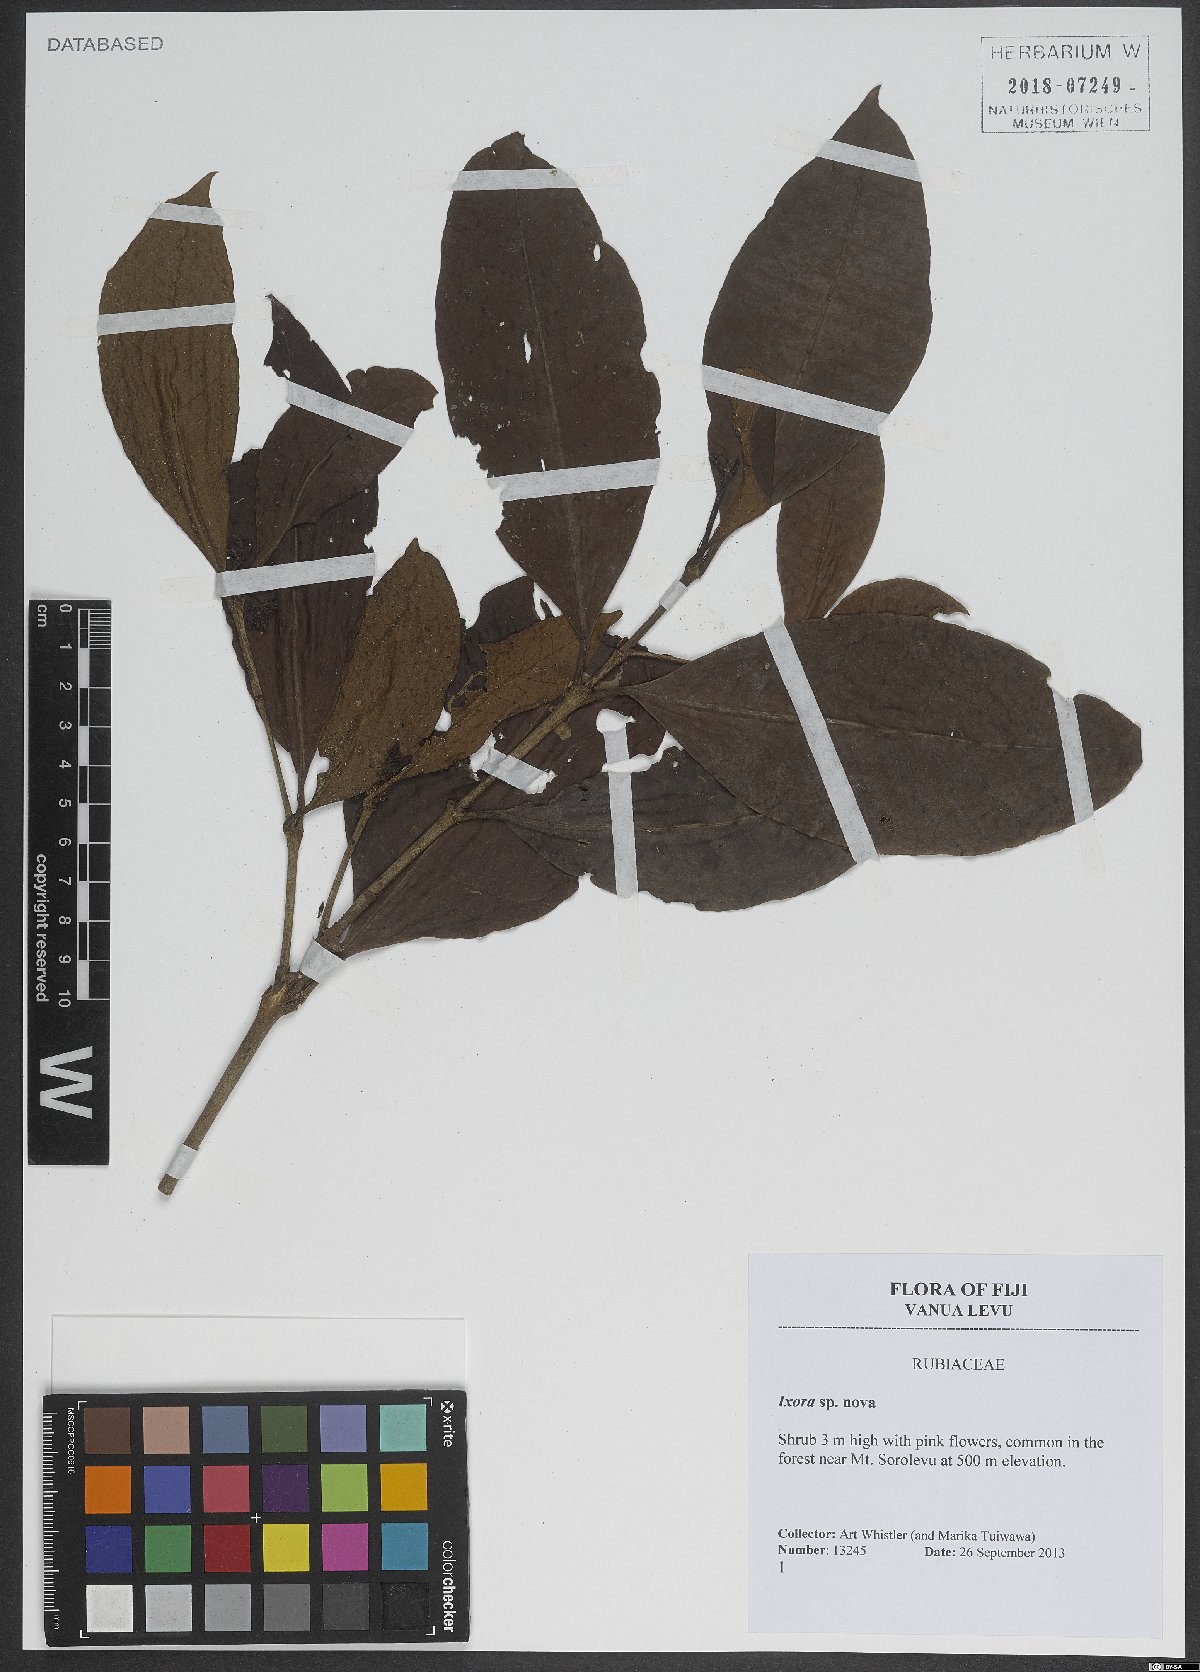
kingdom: Plantae
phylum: Tracheophyta
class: Magnoliopsida
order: Gentianales
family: Rubiaceae
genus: Ixora
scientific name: Ixora
